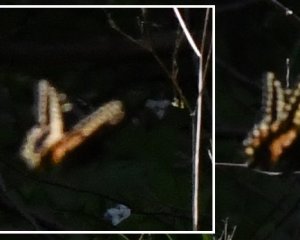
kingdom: Animalia
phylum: Arthropoda
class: Insecta
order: Lepidoptera
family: Papilionidae
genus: Papilio
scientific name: Papilio polyxenes
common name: Black Swallowtail
